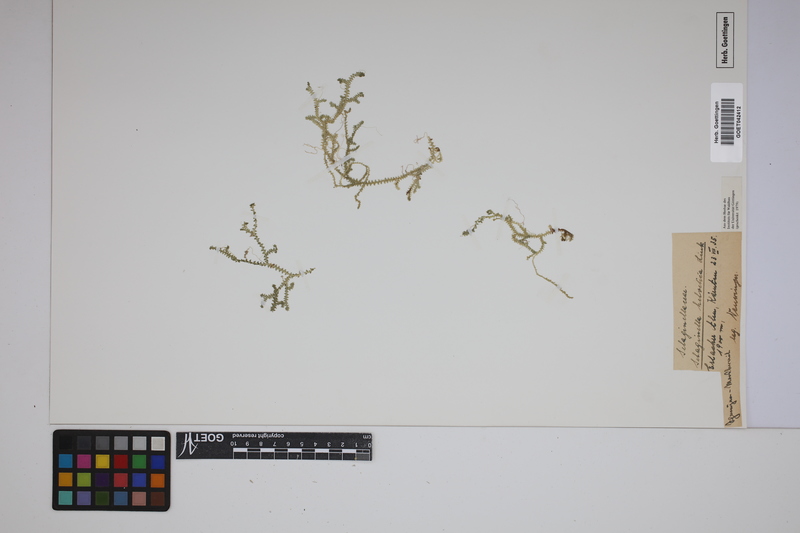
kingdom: Plantae
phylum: Tracheophyta
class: Lycopodiopsida
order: Selaginellales
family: Selaginellaceae
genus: Selaginella
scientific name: Selaginella helvetica
